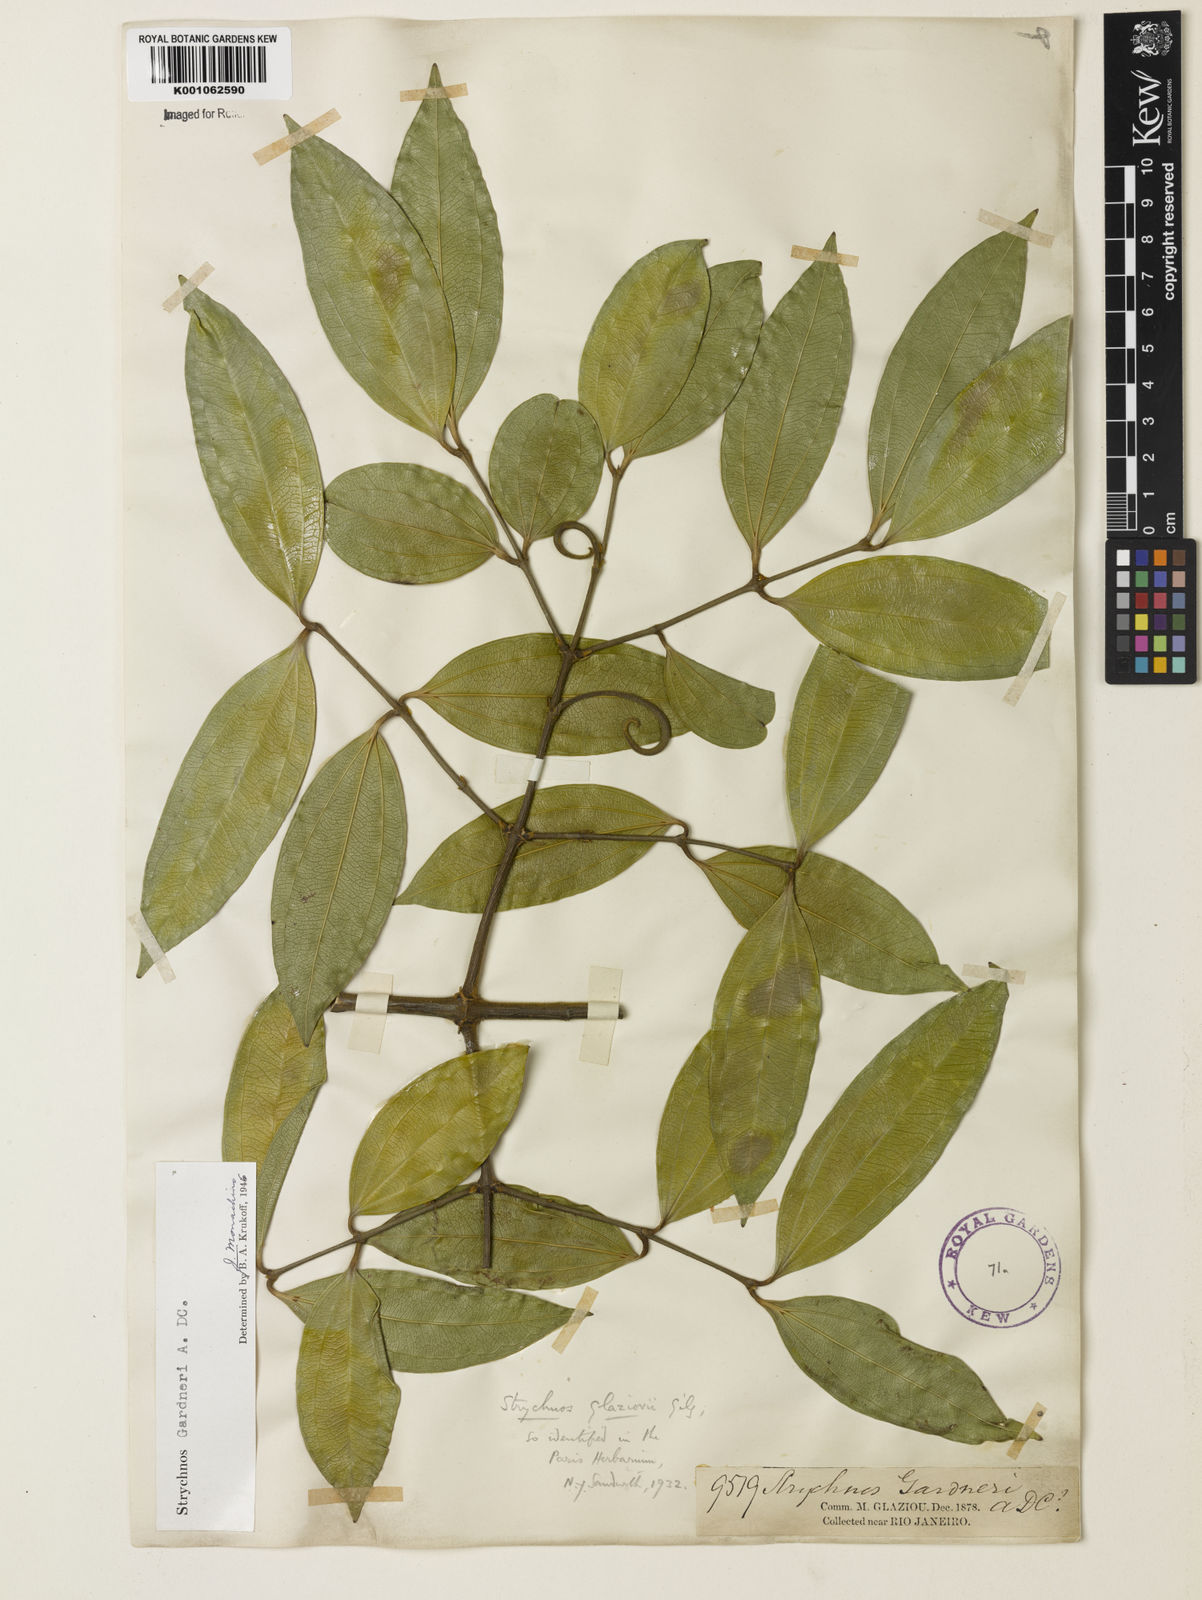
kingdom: Plantae
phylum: Tracheophyta
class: Magnoliopsida
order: Gentianales
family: Loganiaceae
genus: Strychnos
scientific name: Strychnos gardneri
